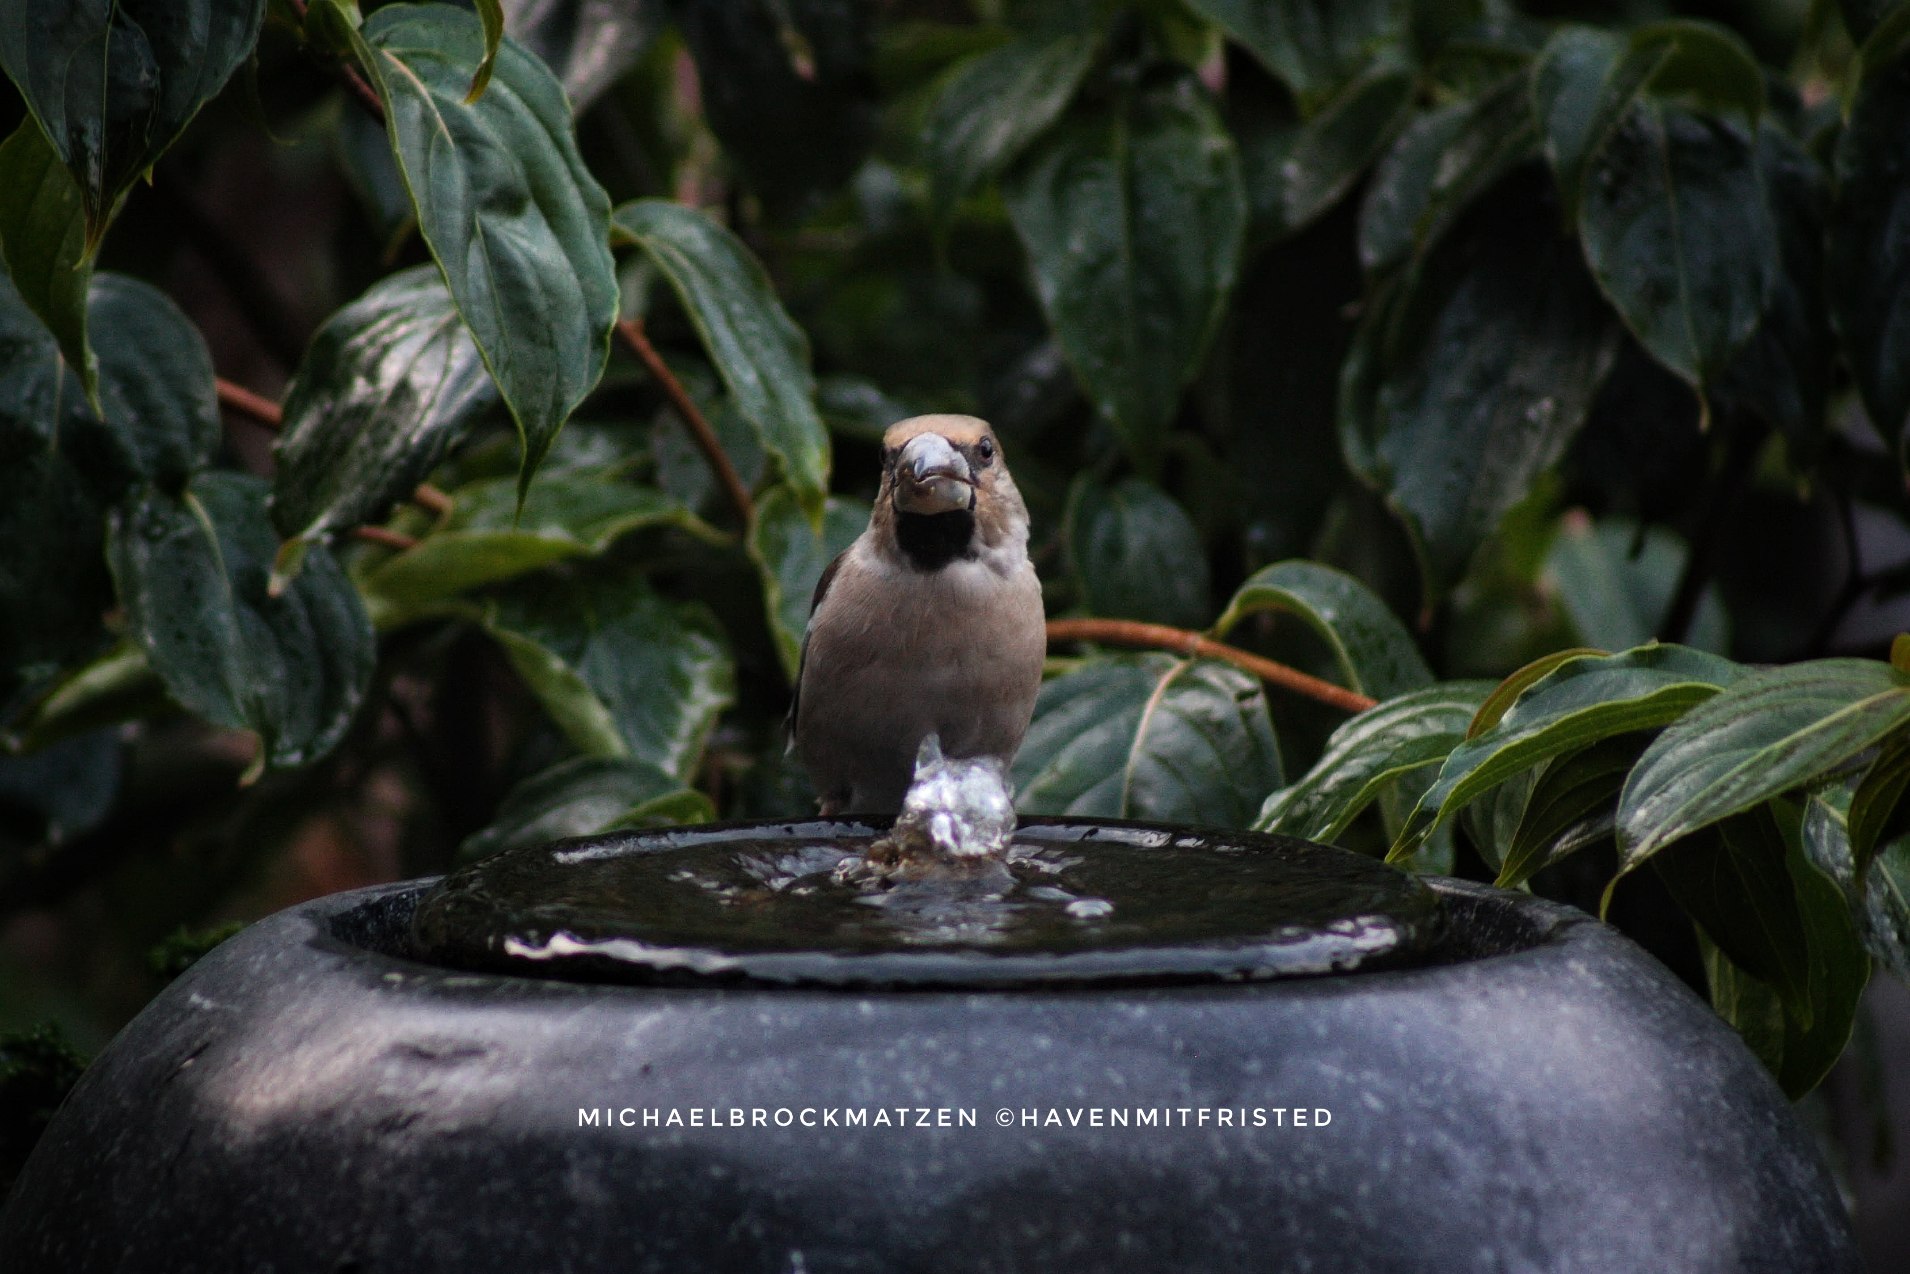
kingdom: Animalia
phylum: Chordata
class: Aves
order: Passeriformes
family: Fringillidae
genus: Coccothraustes
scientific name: Coccothraustes coccothraustes
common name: Kernebider
